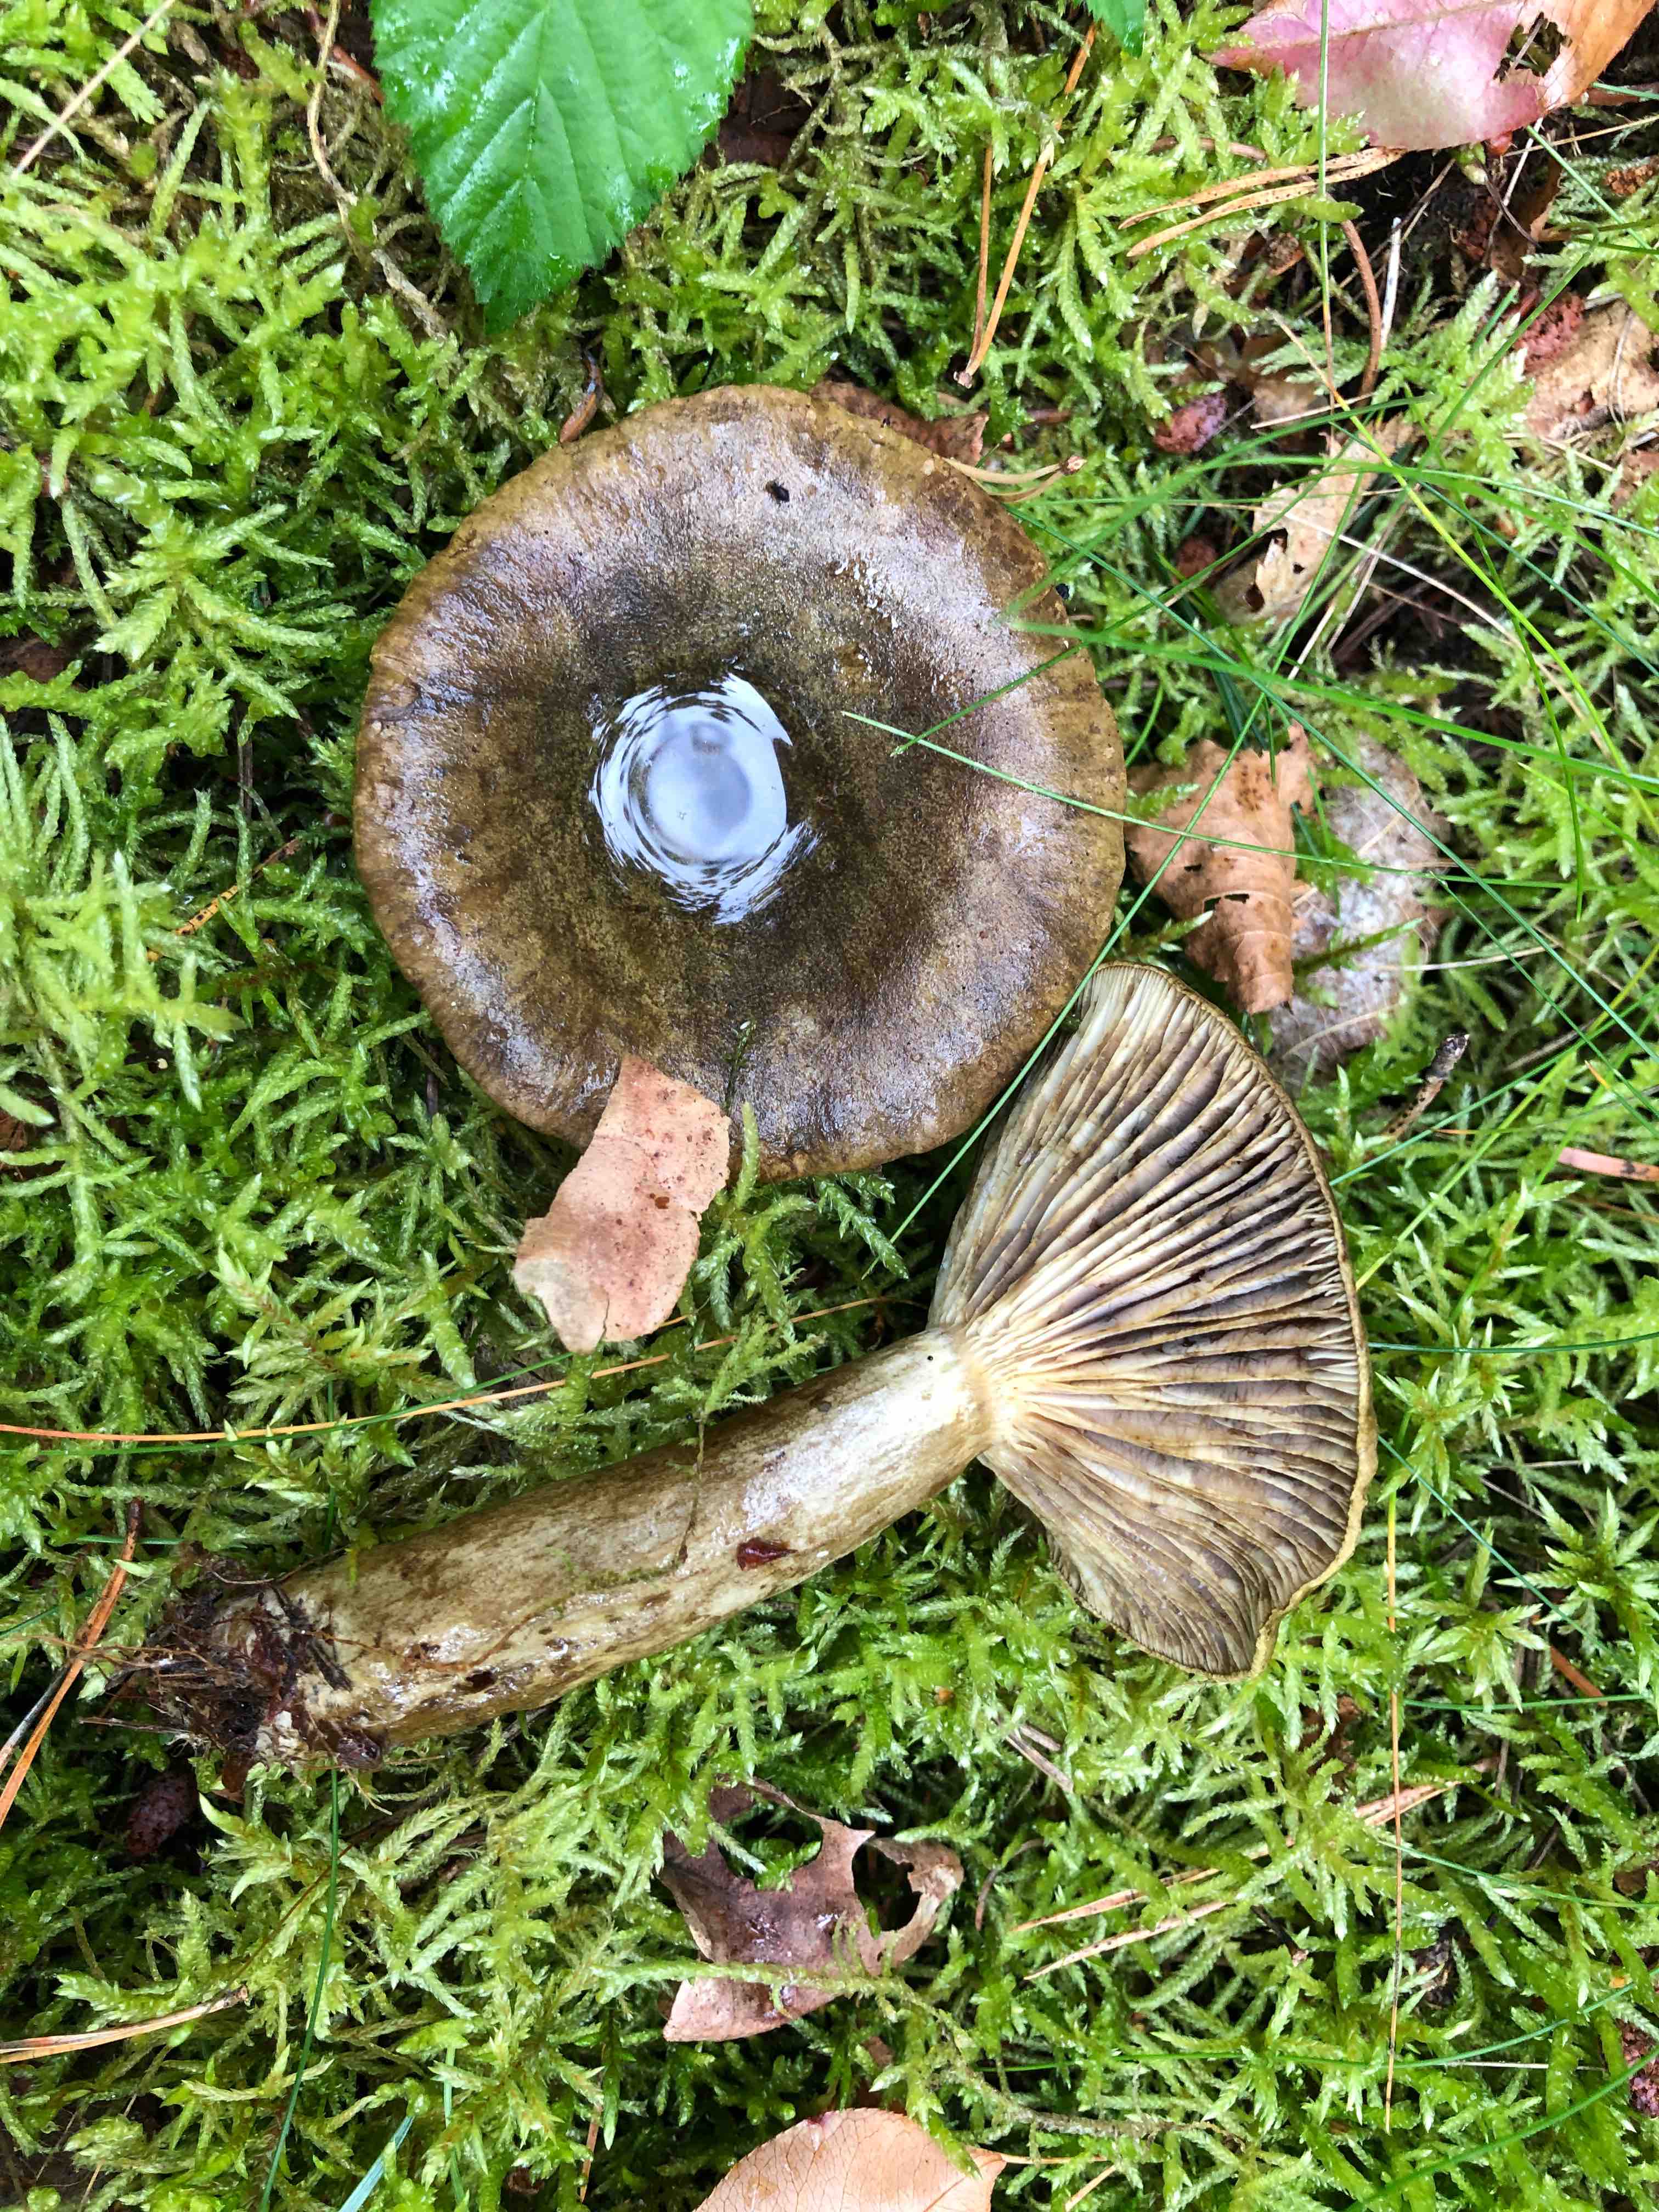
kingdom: Fungi
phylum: Basidiomycota
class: Agaricomycetes
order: Russulales
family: Russulaceae
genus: Lactarius
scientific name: Lactarius necator
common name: manddraber-mælkehat
